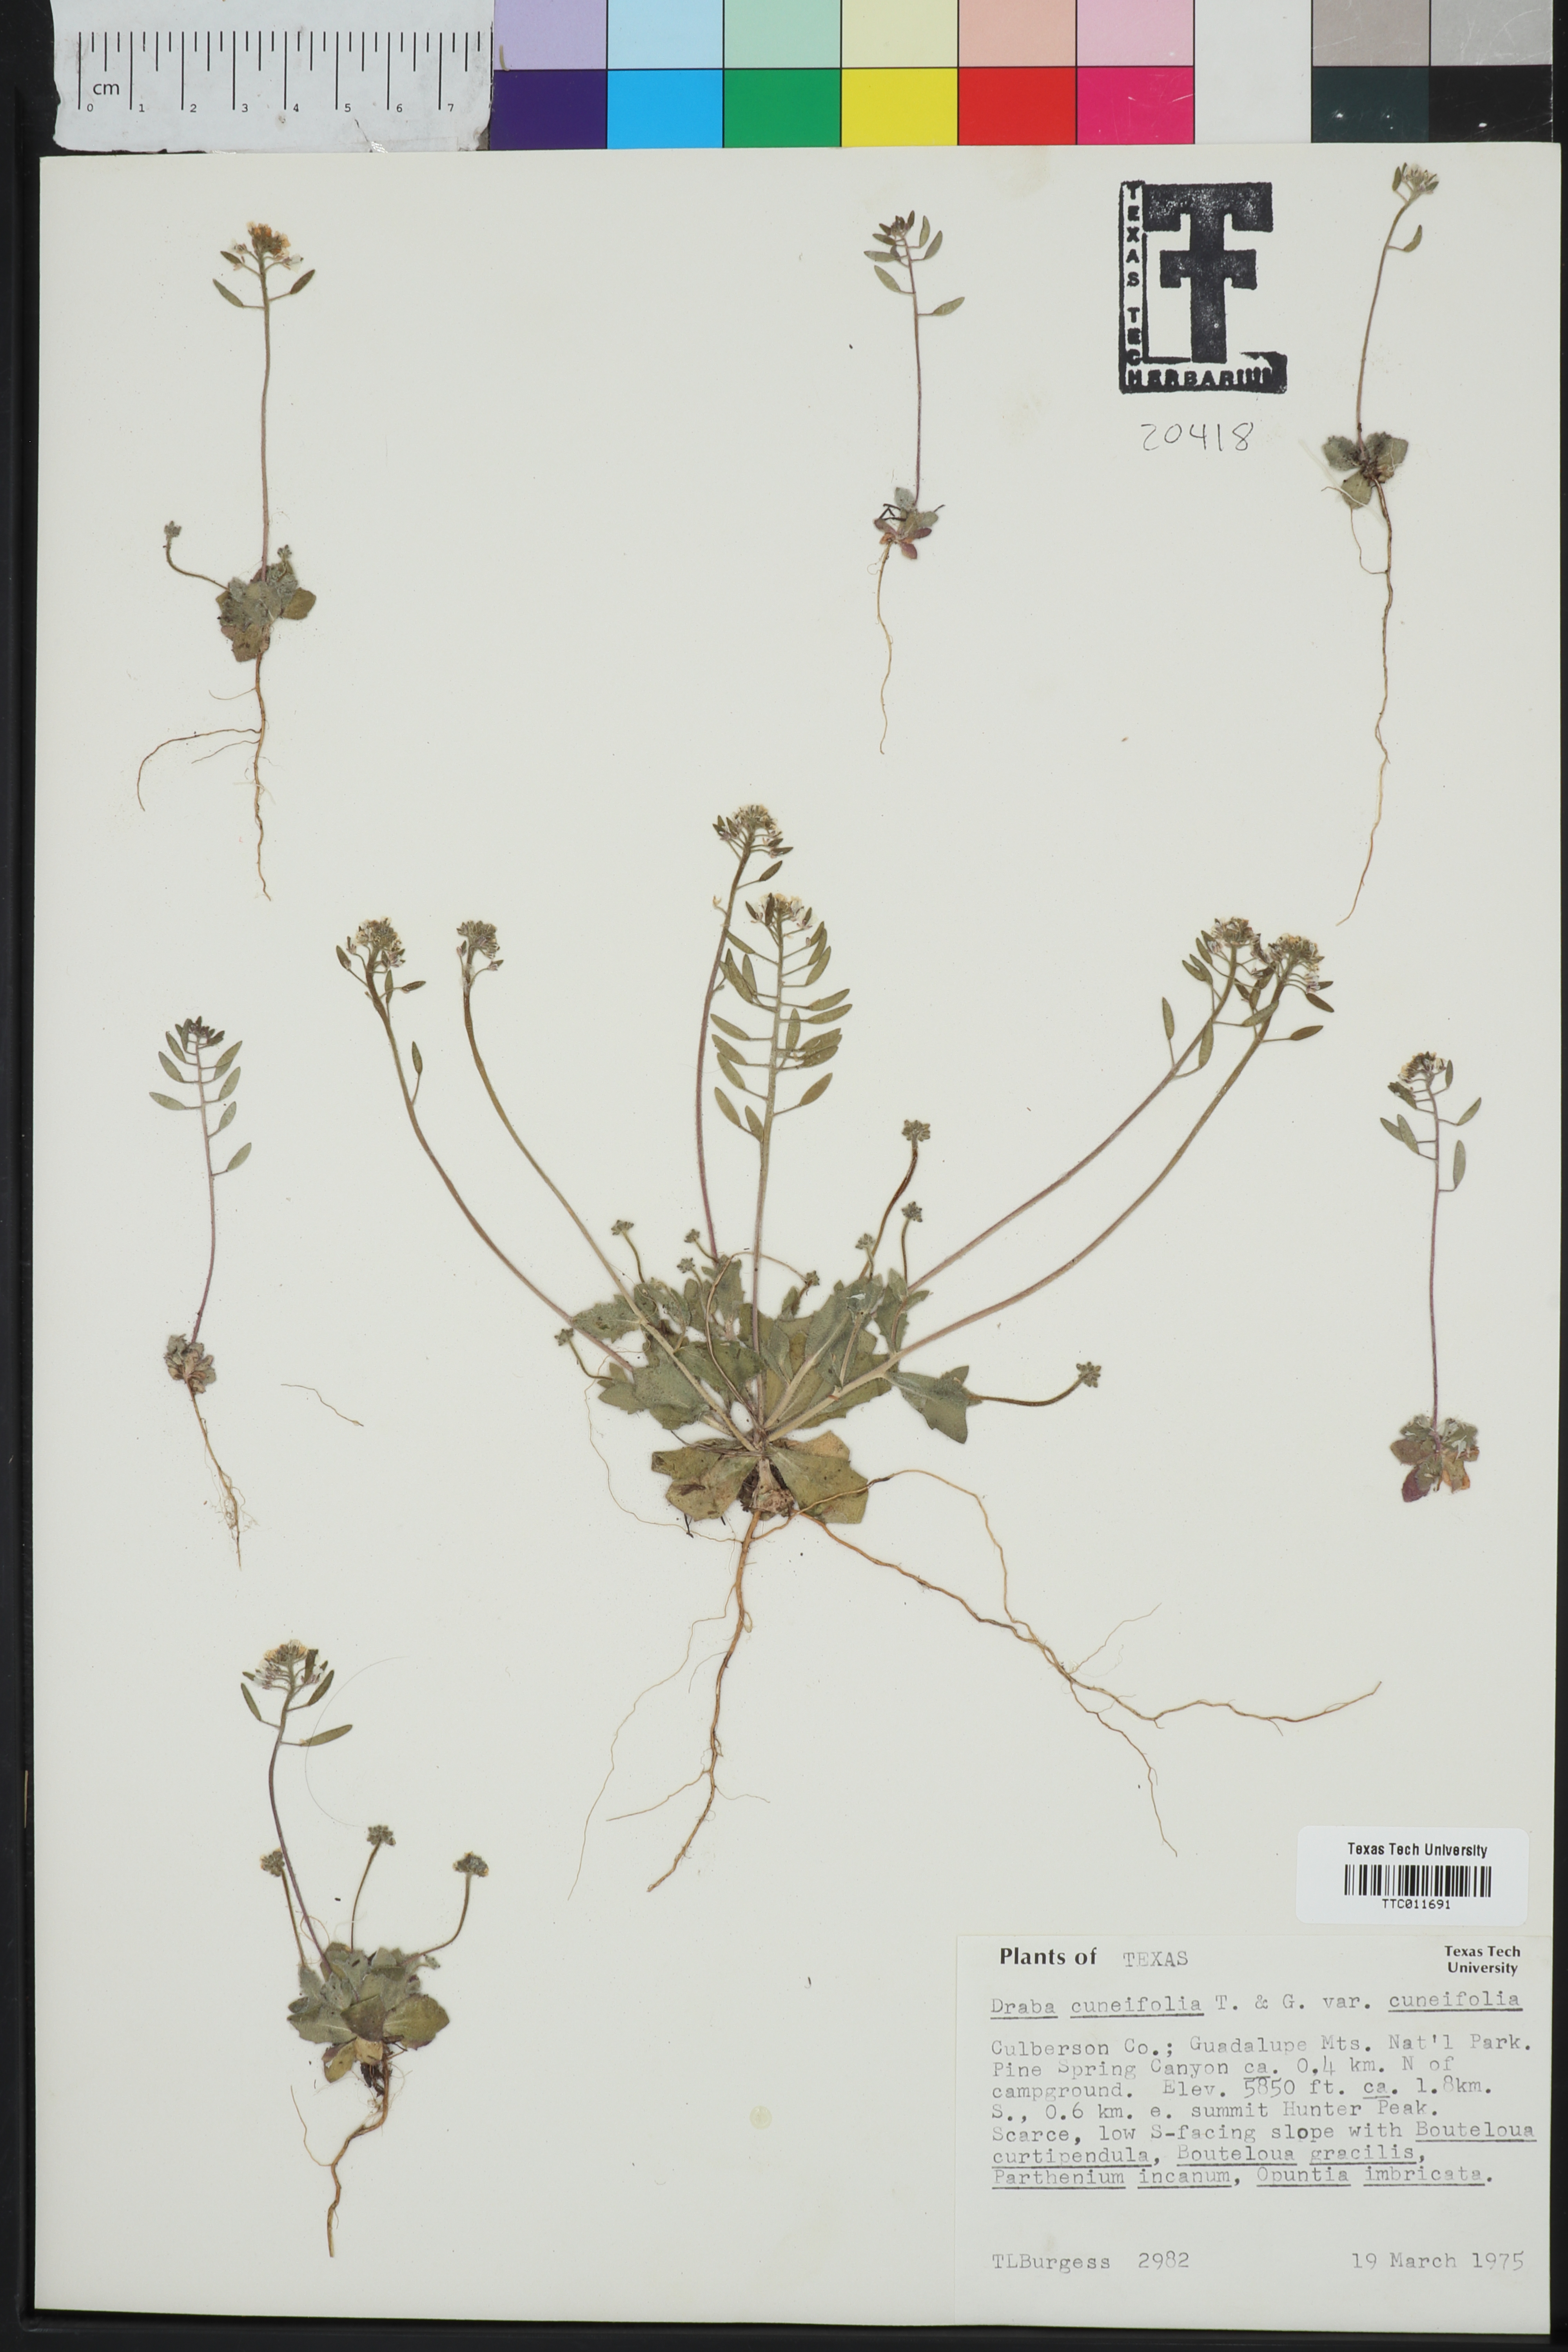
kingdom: Plantae
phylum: Tracheophyta
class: Magnoliopsida
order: Brassicales
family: Brassicaceae
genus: Tomostima
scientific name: Tomostima cuneifolia
